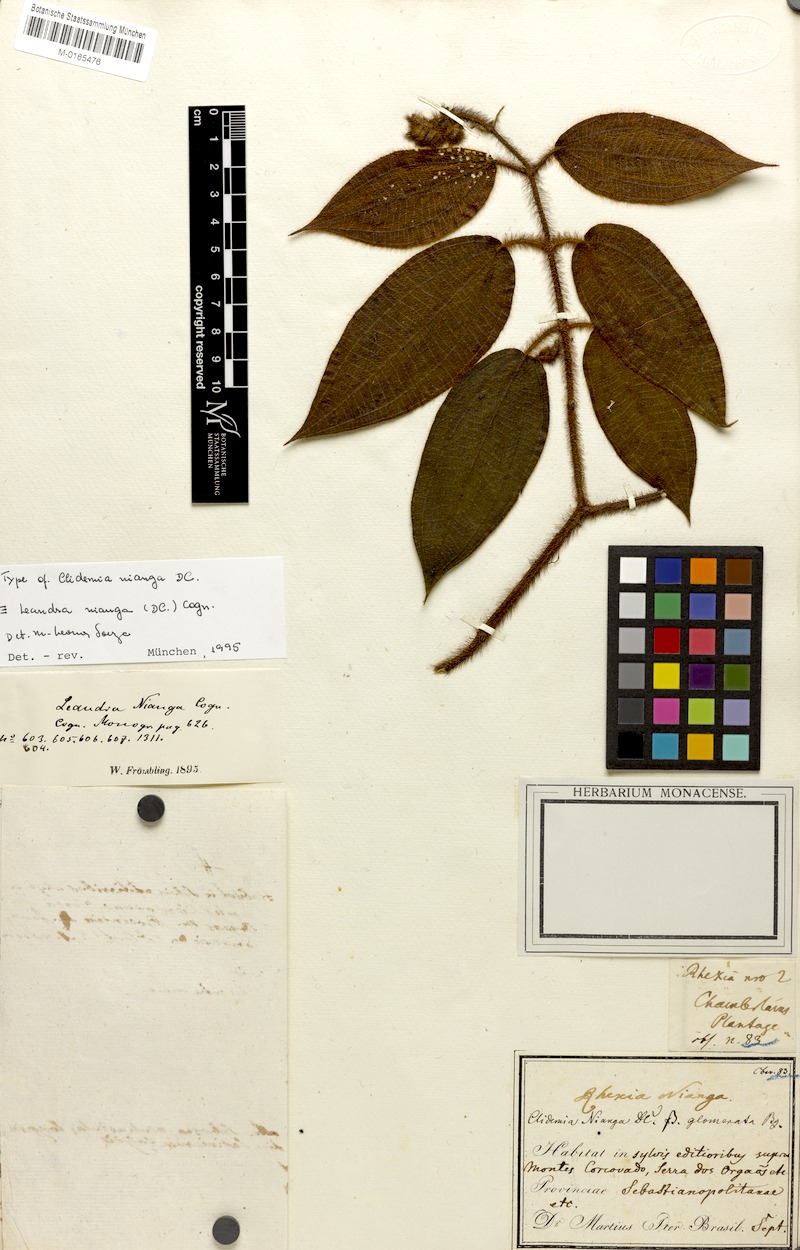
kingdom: Plantae
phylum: Tracheophyta
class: Magnoliopsida
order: Myrtales
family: Melastomataceae
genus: Miconia
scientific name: Miconia nianga
